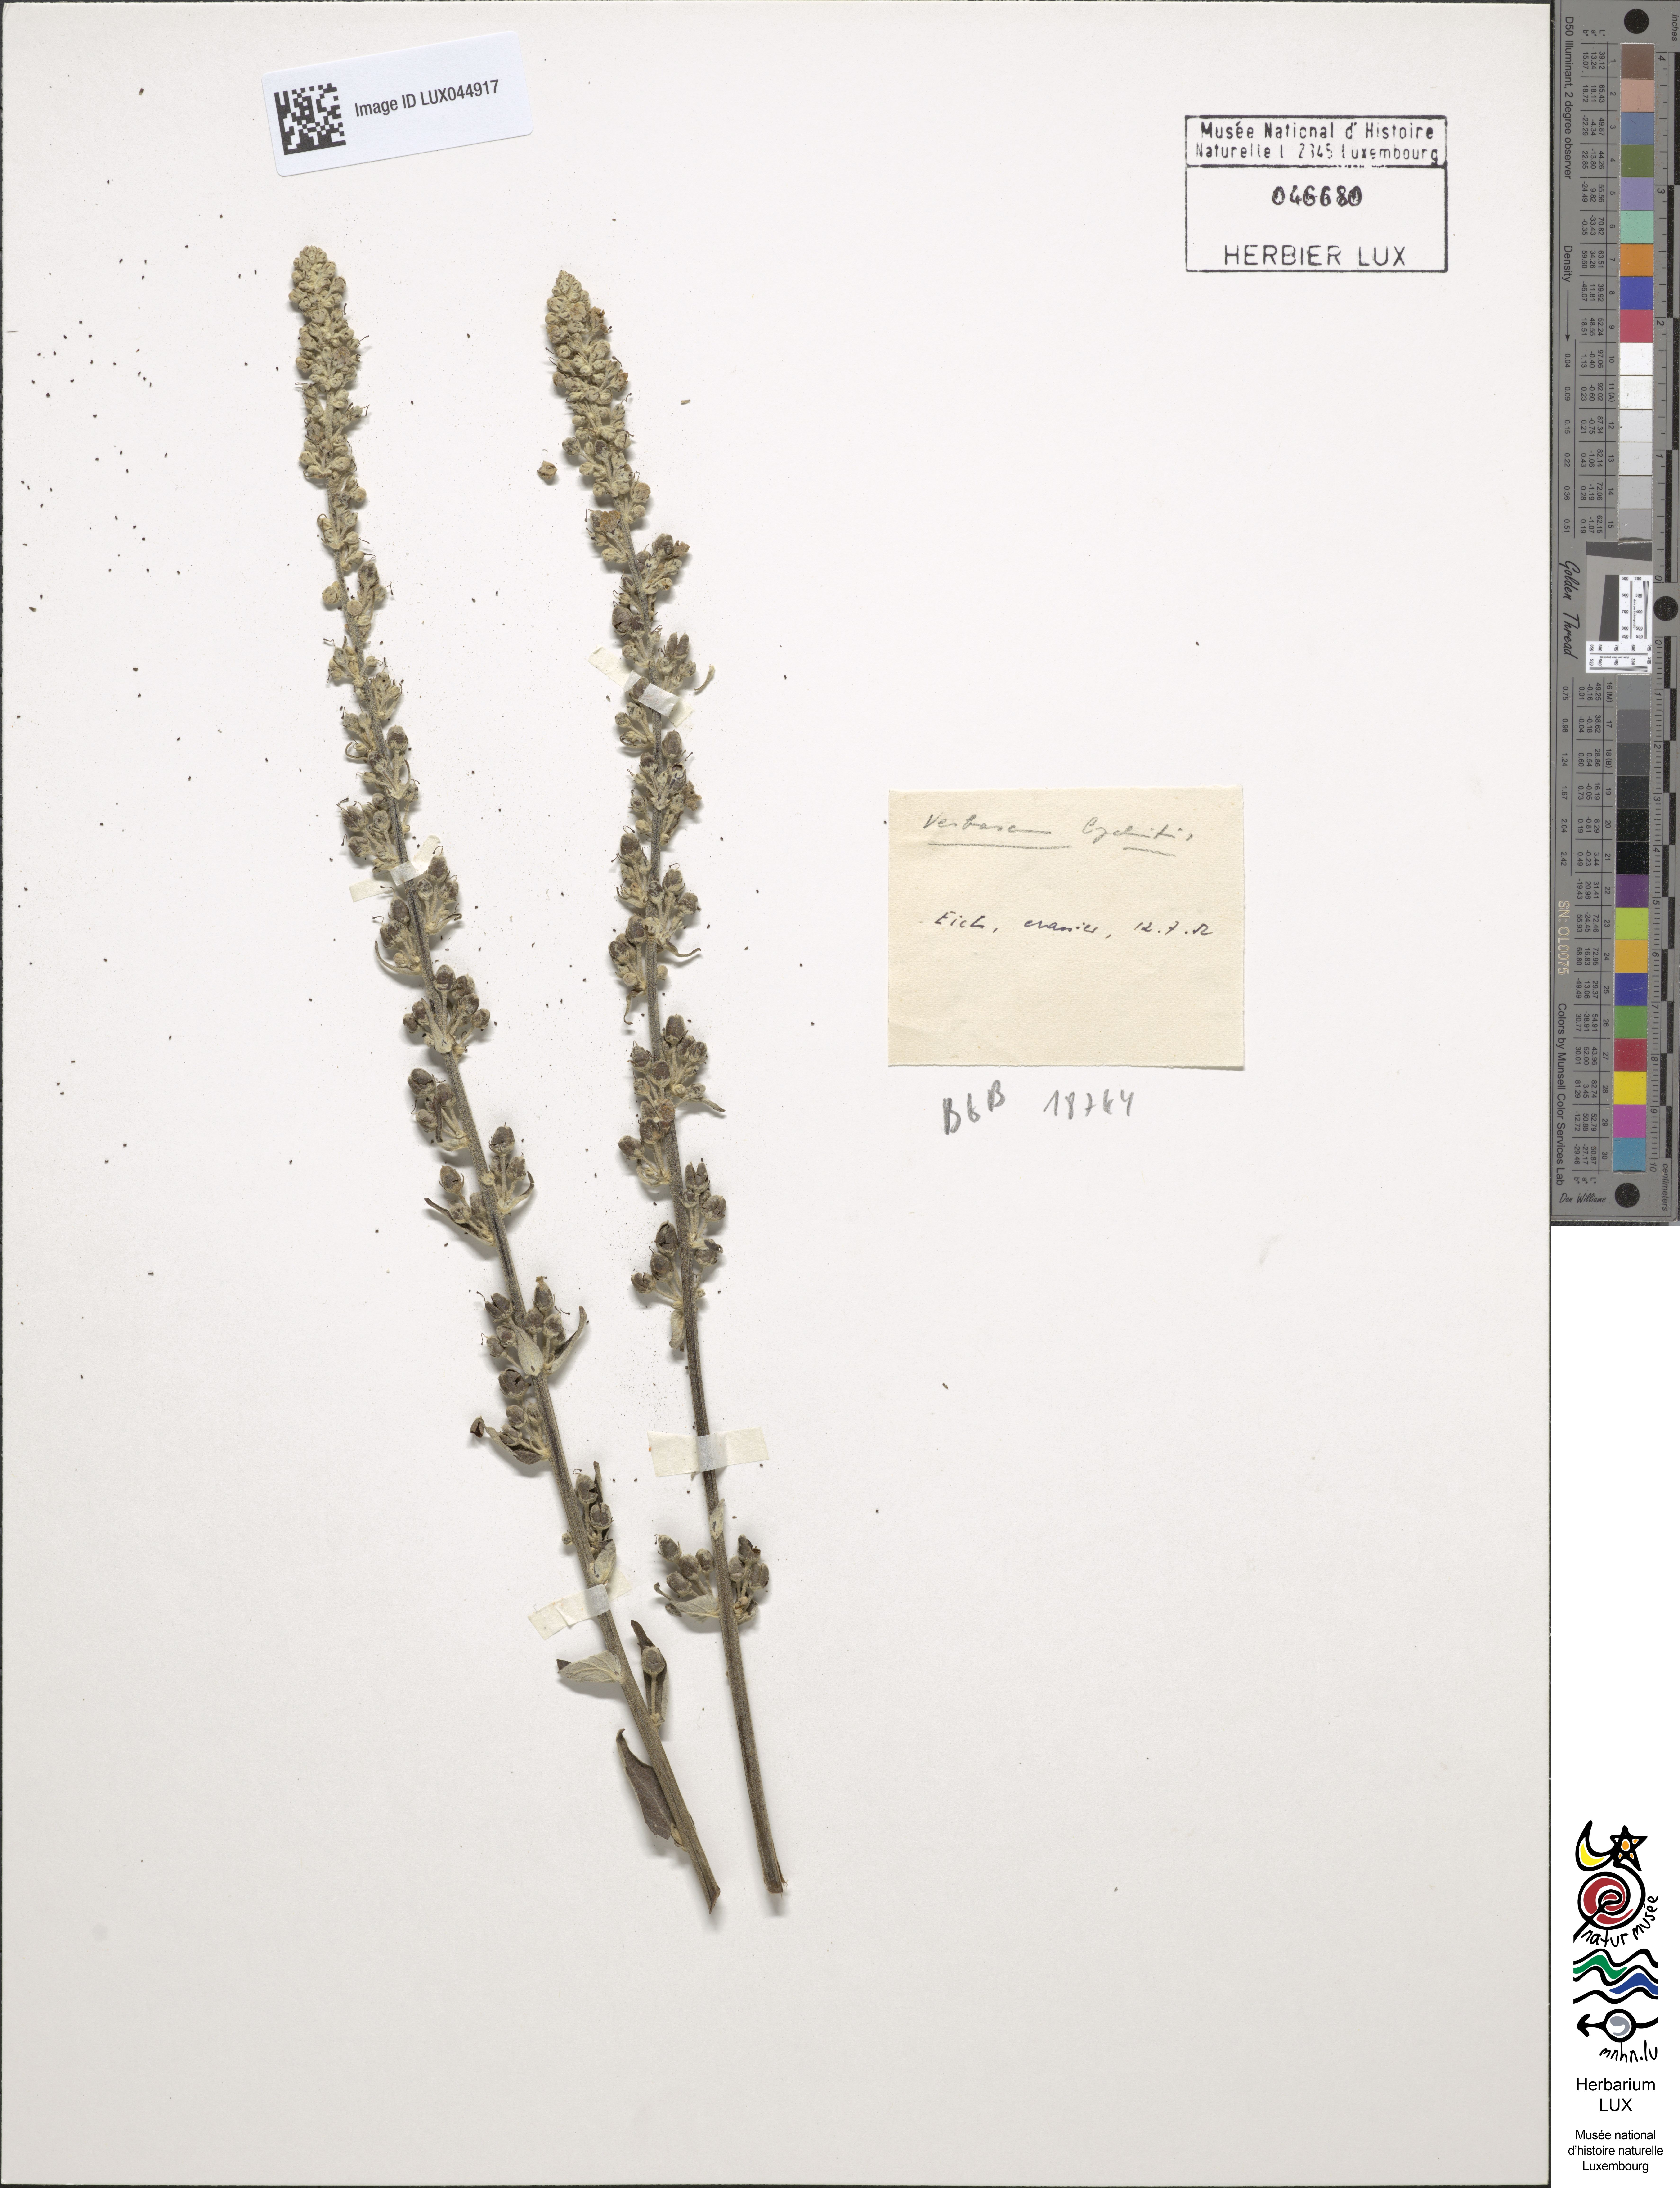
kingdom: Plantae
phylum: Tracheophyta
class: Magnoliopsida
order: Lamiales
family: Scrophulariaceae
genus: Verbascum
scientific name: Verbascum lychnitis
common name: White mullein
